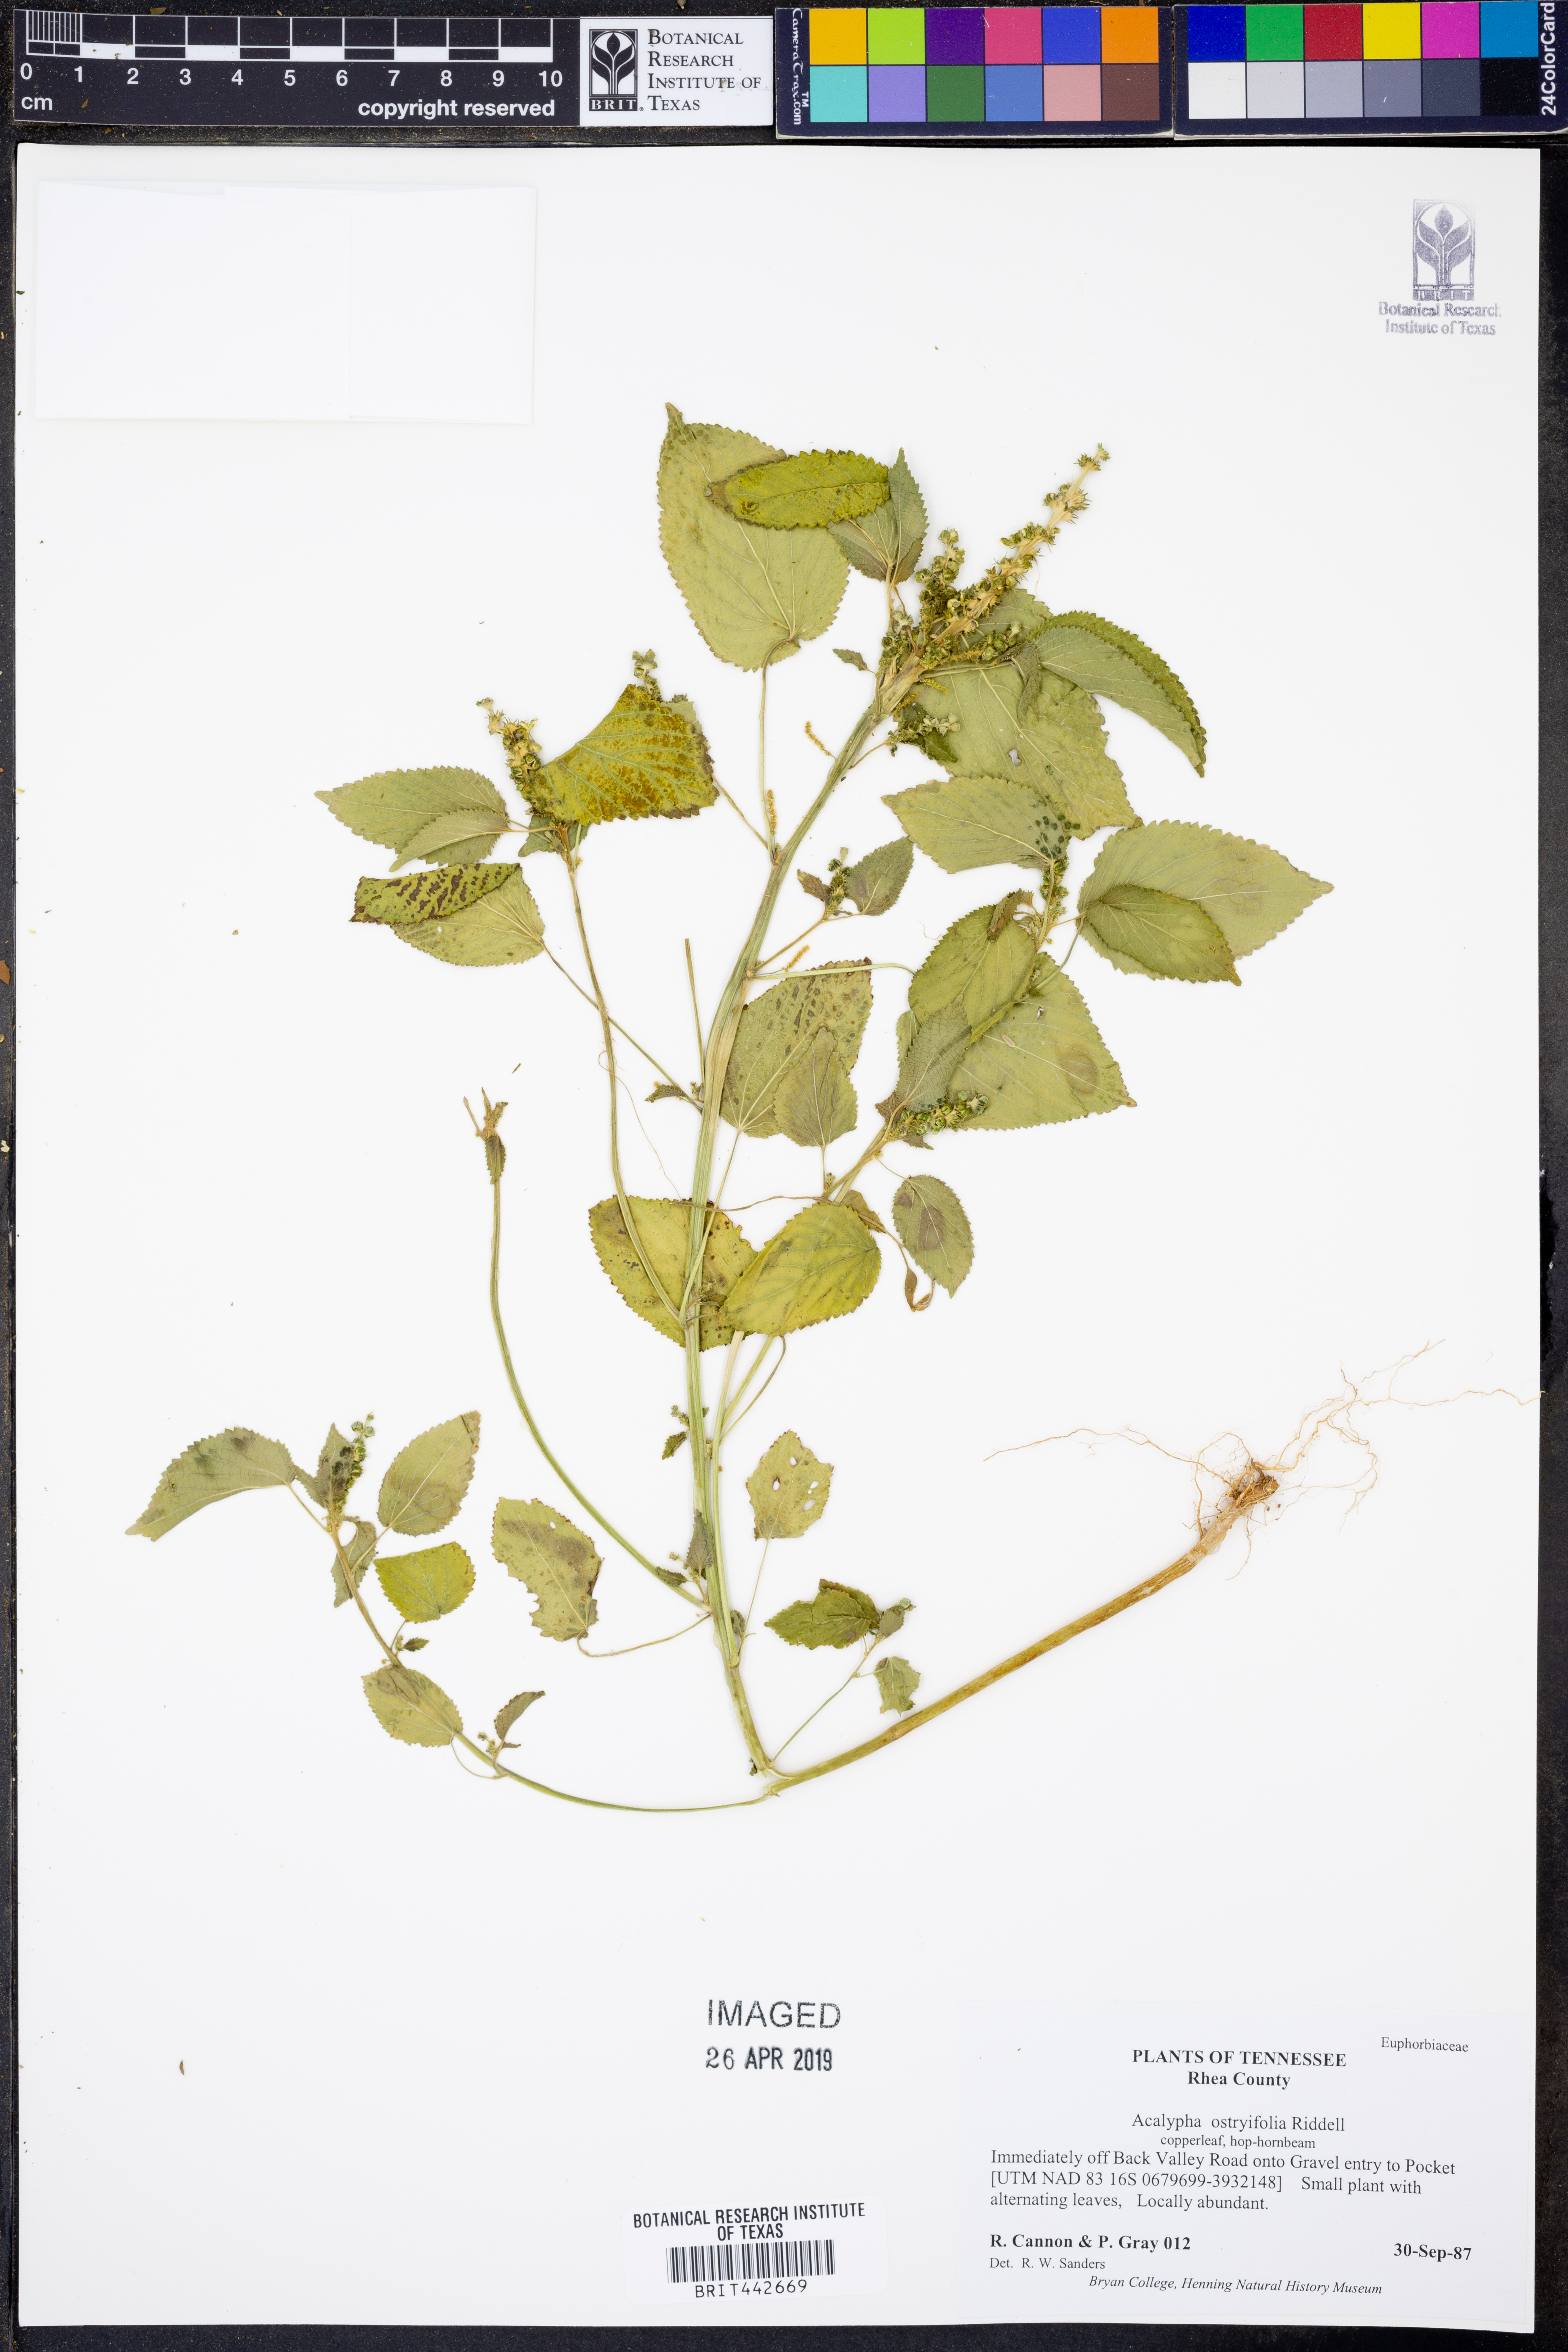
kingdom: Plantae
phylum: Tracheophyta
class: Magnoliopsida
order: Malpighiales
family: Euphorbiaceae
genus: Acalypha
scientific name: Acalypha persimilis
